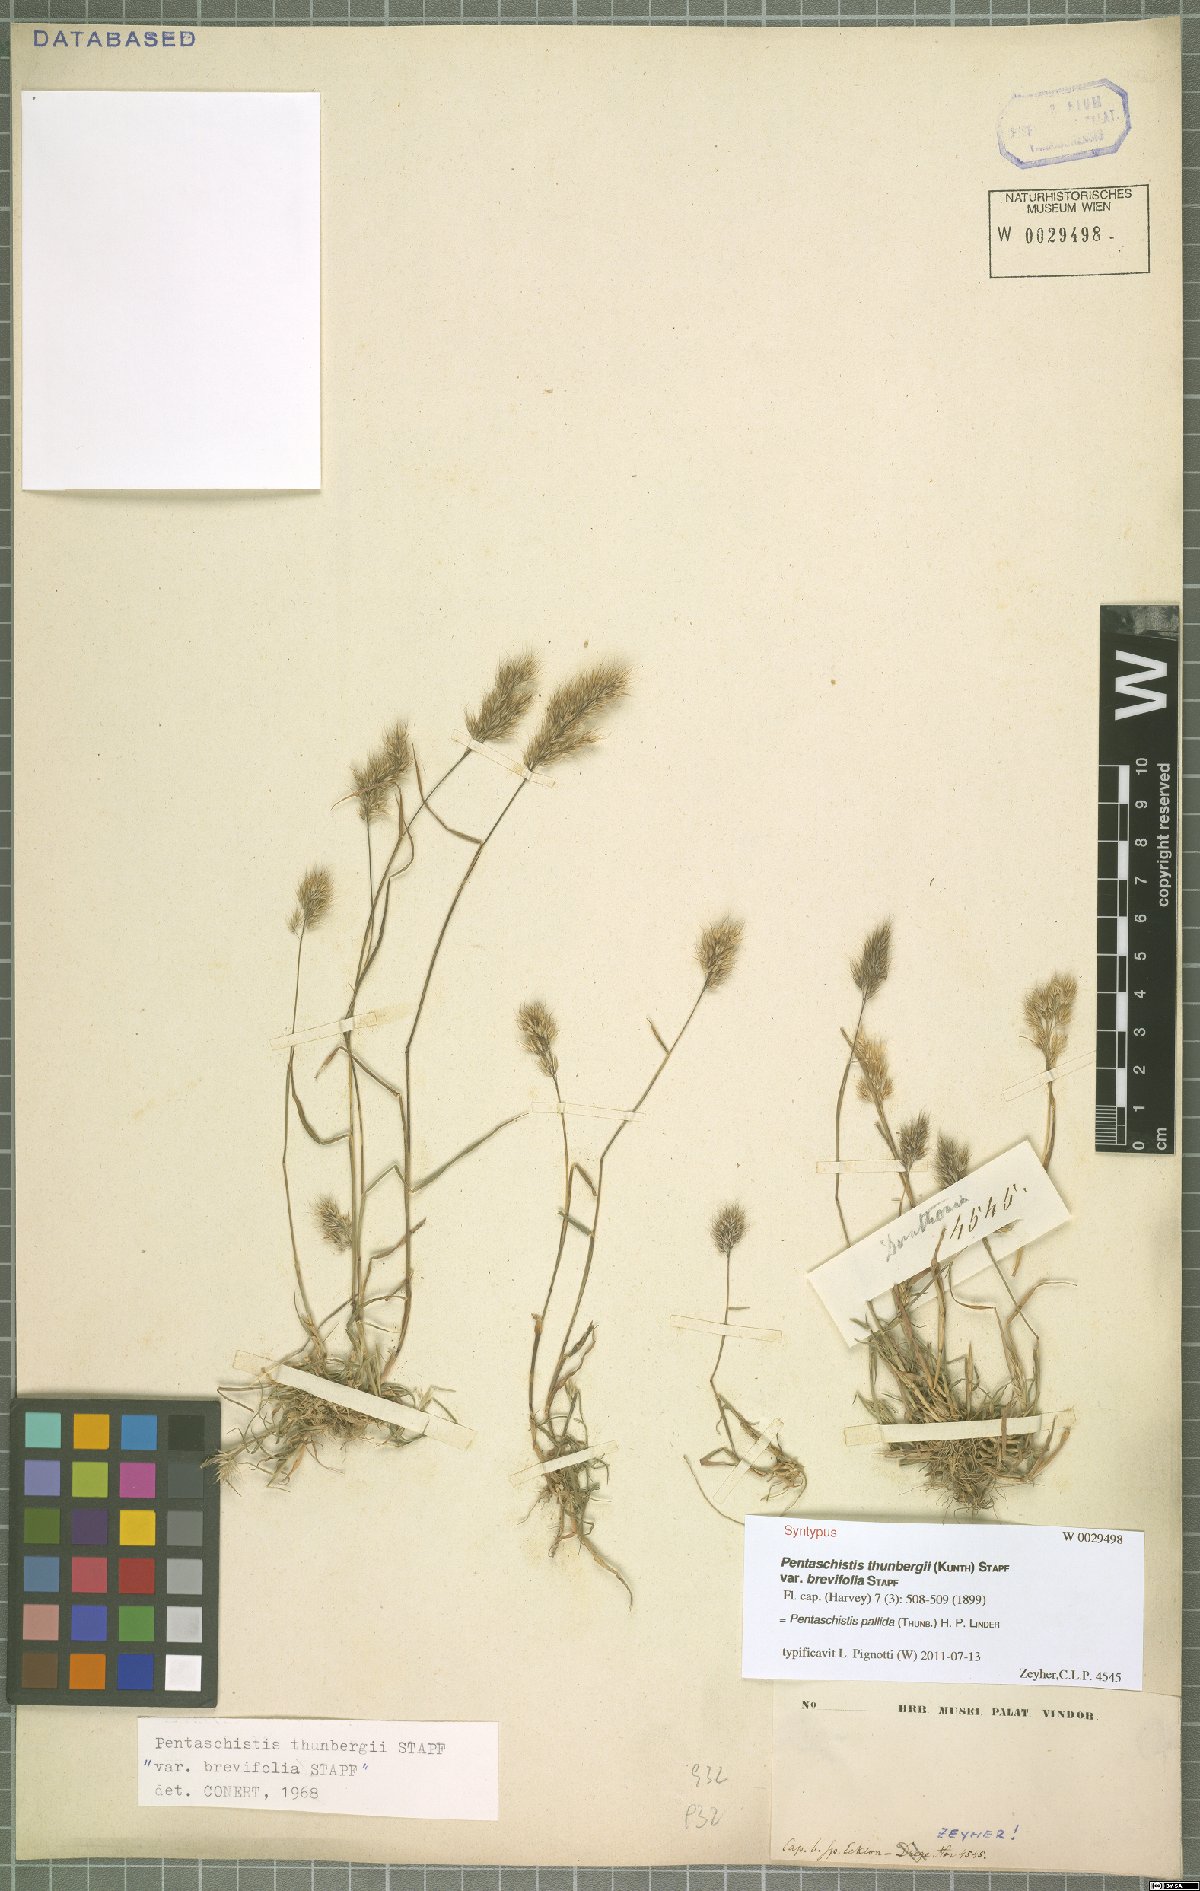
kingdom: Plantae
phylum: Tracheophyta
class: Liliopsida
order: Poales
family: Poaceae
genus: Pentameris
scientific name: Pentameris pallida
